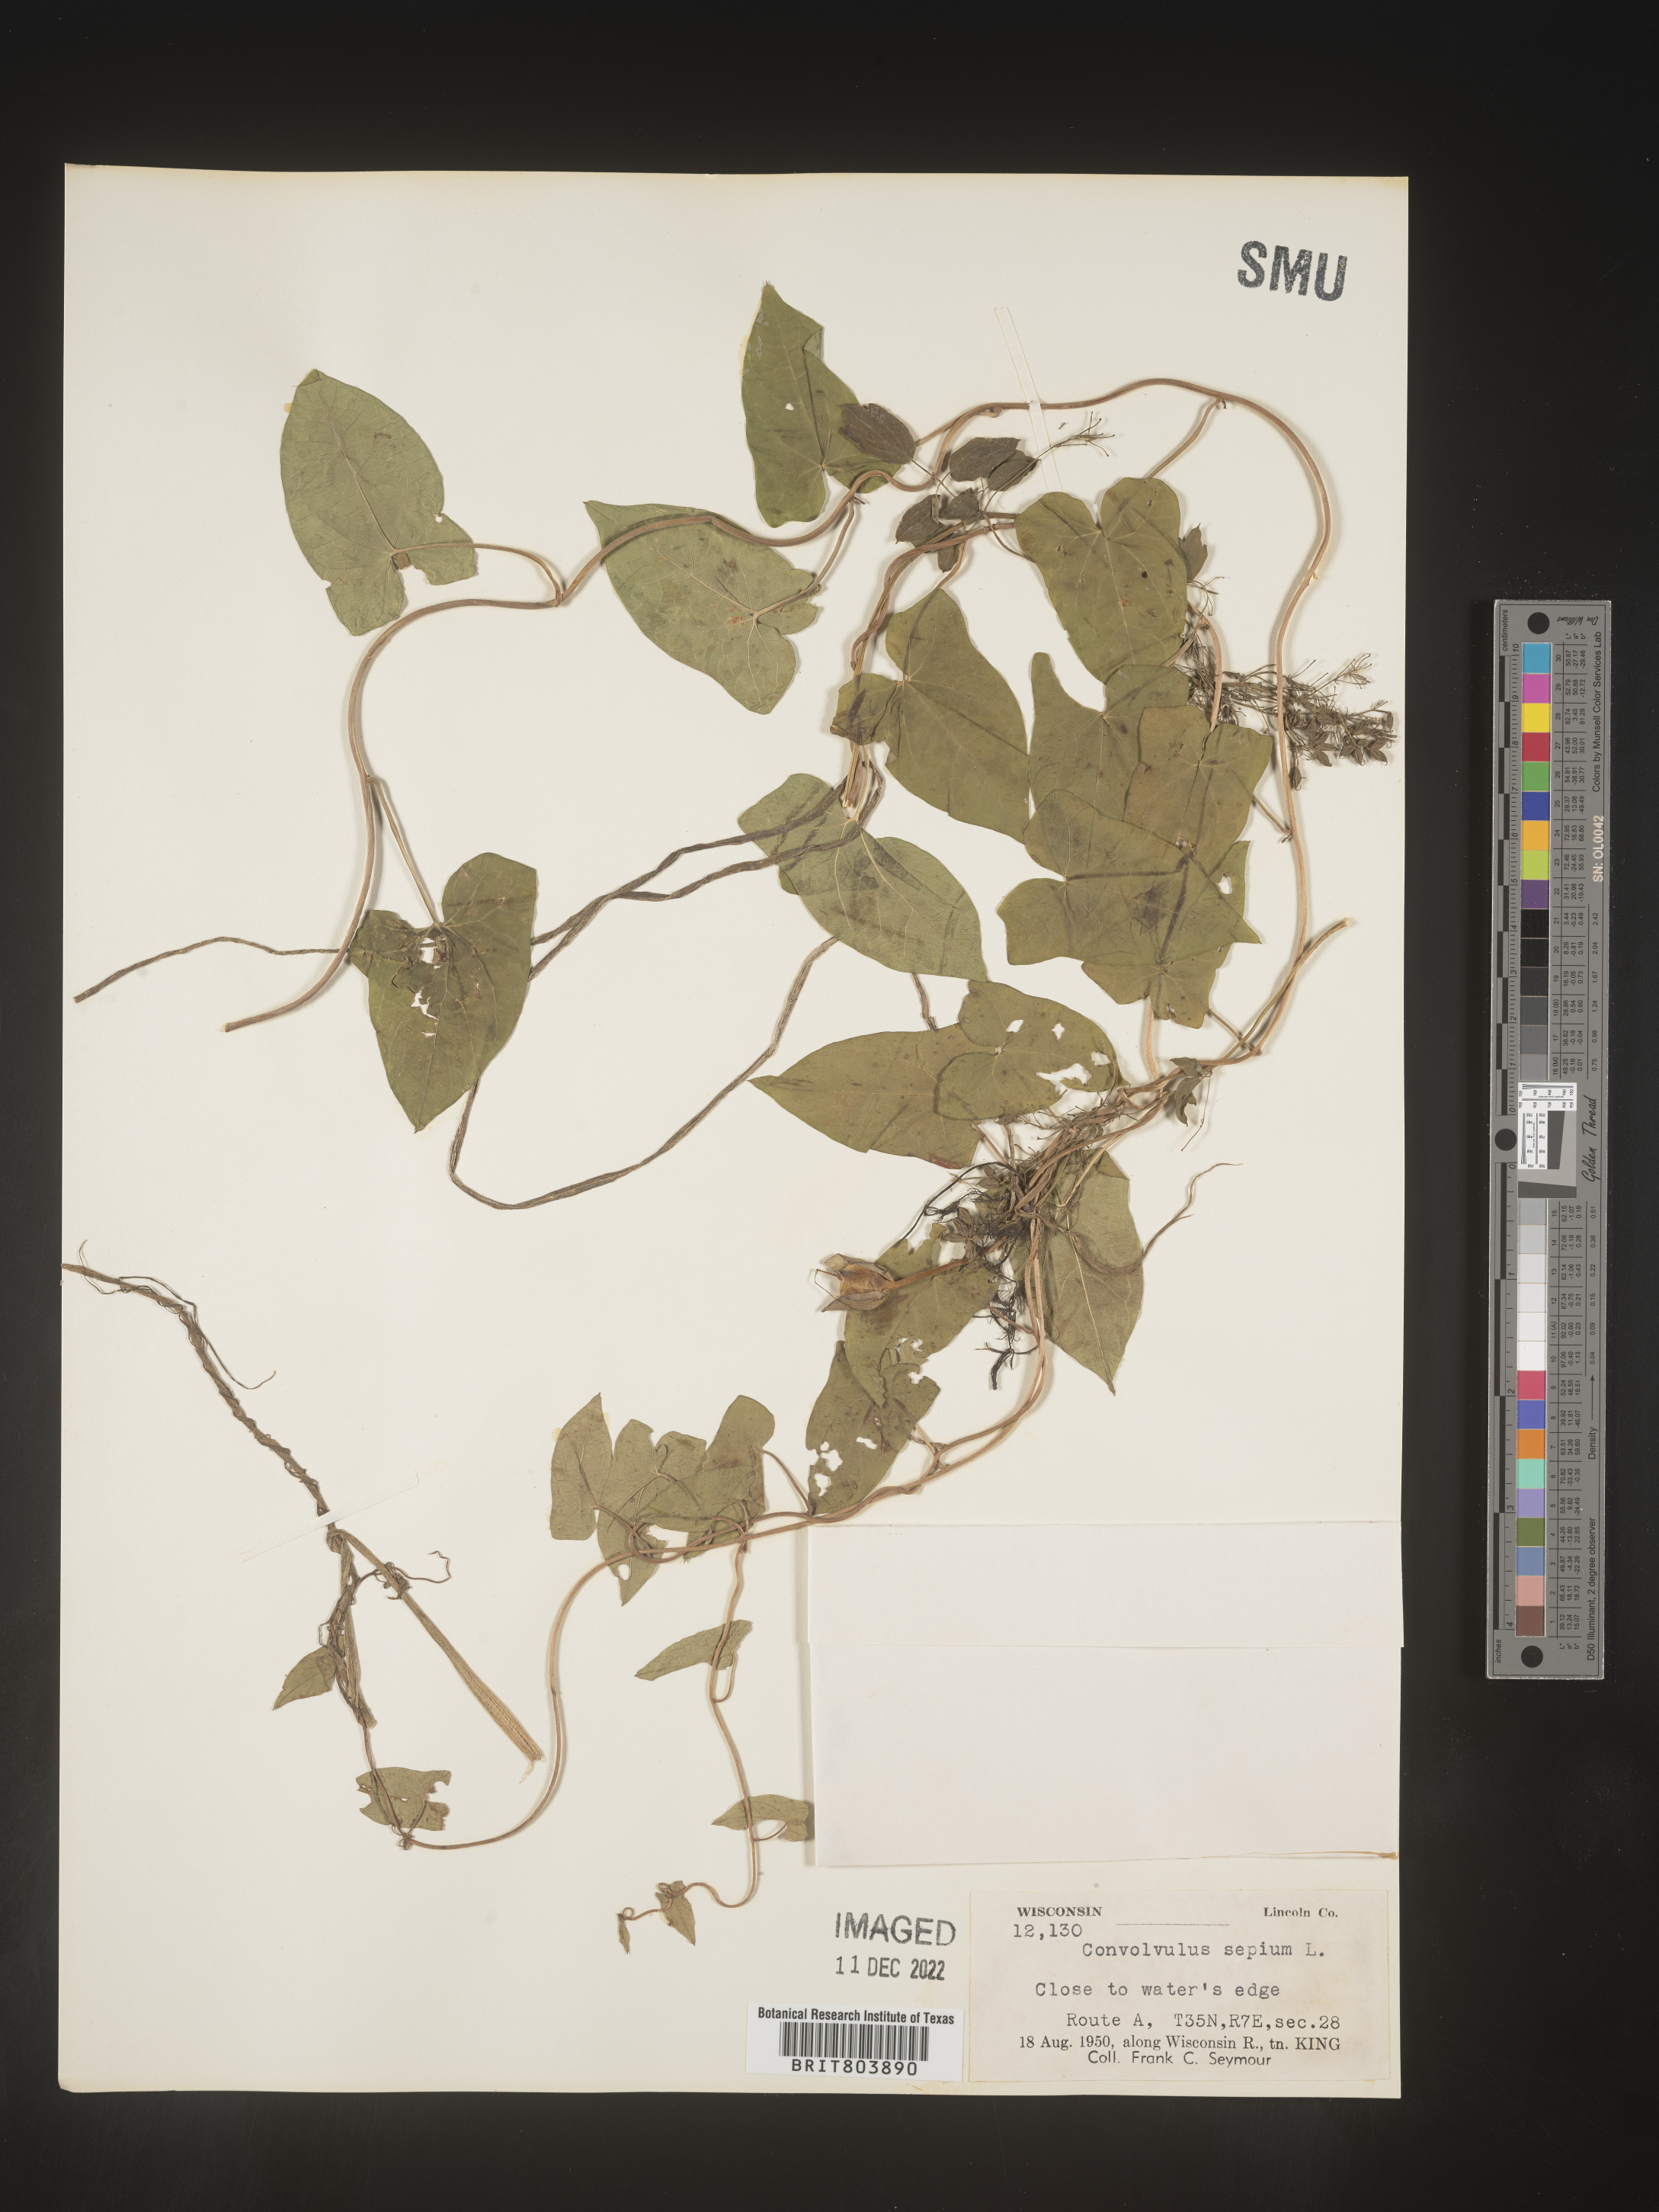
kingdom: Plantae
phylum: Tracheophyta
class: Magnoliopsida
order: Solanales
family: Convolvulaceae
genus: Calystegia
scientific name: Calystegia sepium
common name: Hedge bindweed
